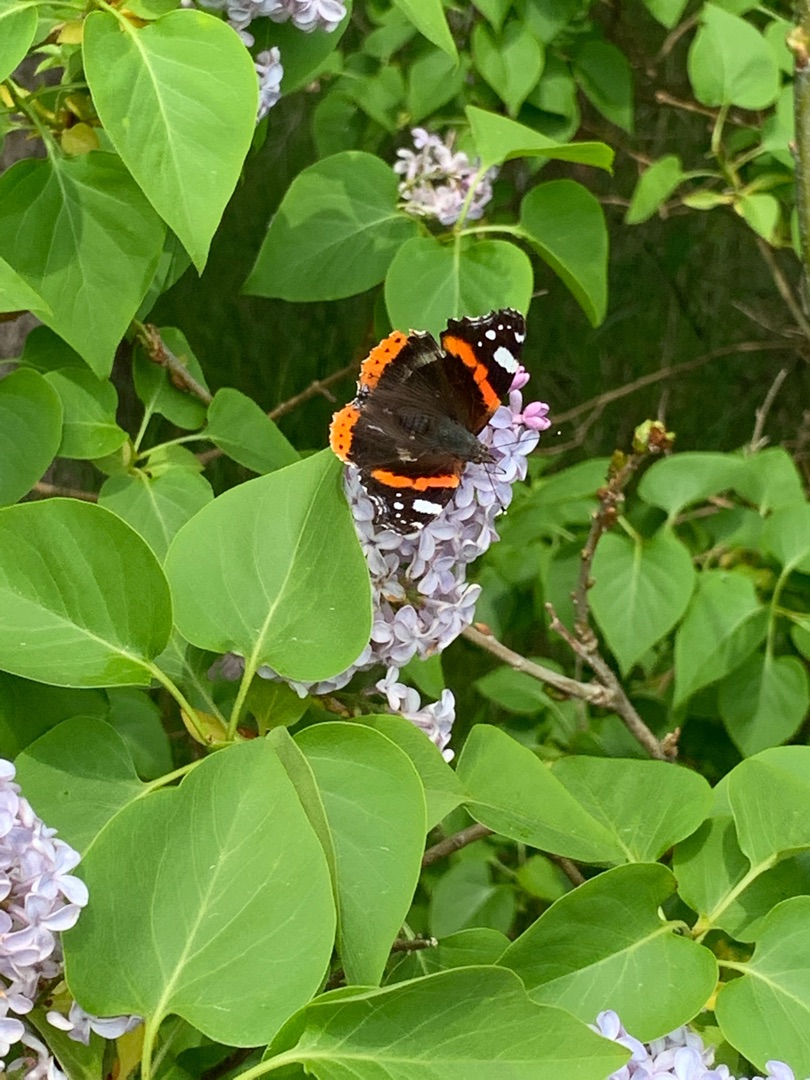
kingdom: Animalia
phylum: Arthropoda
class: Insecta
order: Lepidoptera
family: Nymphalidae
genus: Vanessa
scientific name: Vanessa atalanta
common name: Admiral
